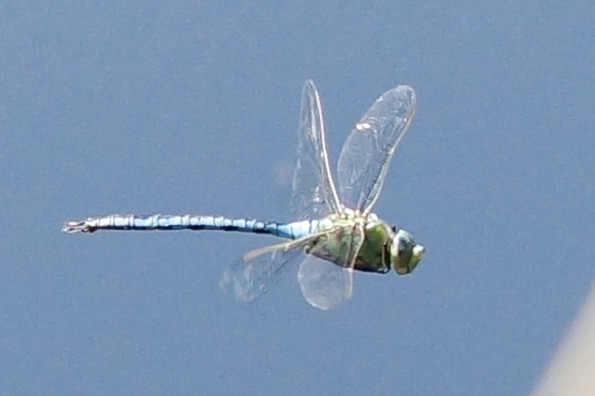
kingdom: Animalia
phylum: Arthropoda
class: Insecta
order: Odonata
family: Aeshnidae
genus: Anax
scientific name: Anax imperator
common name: Stor kejserguldsmed
